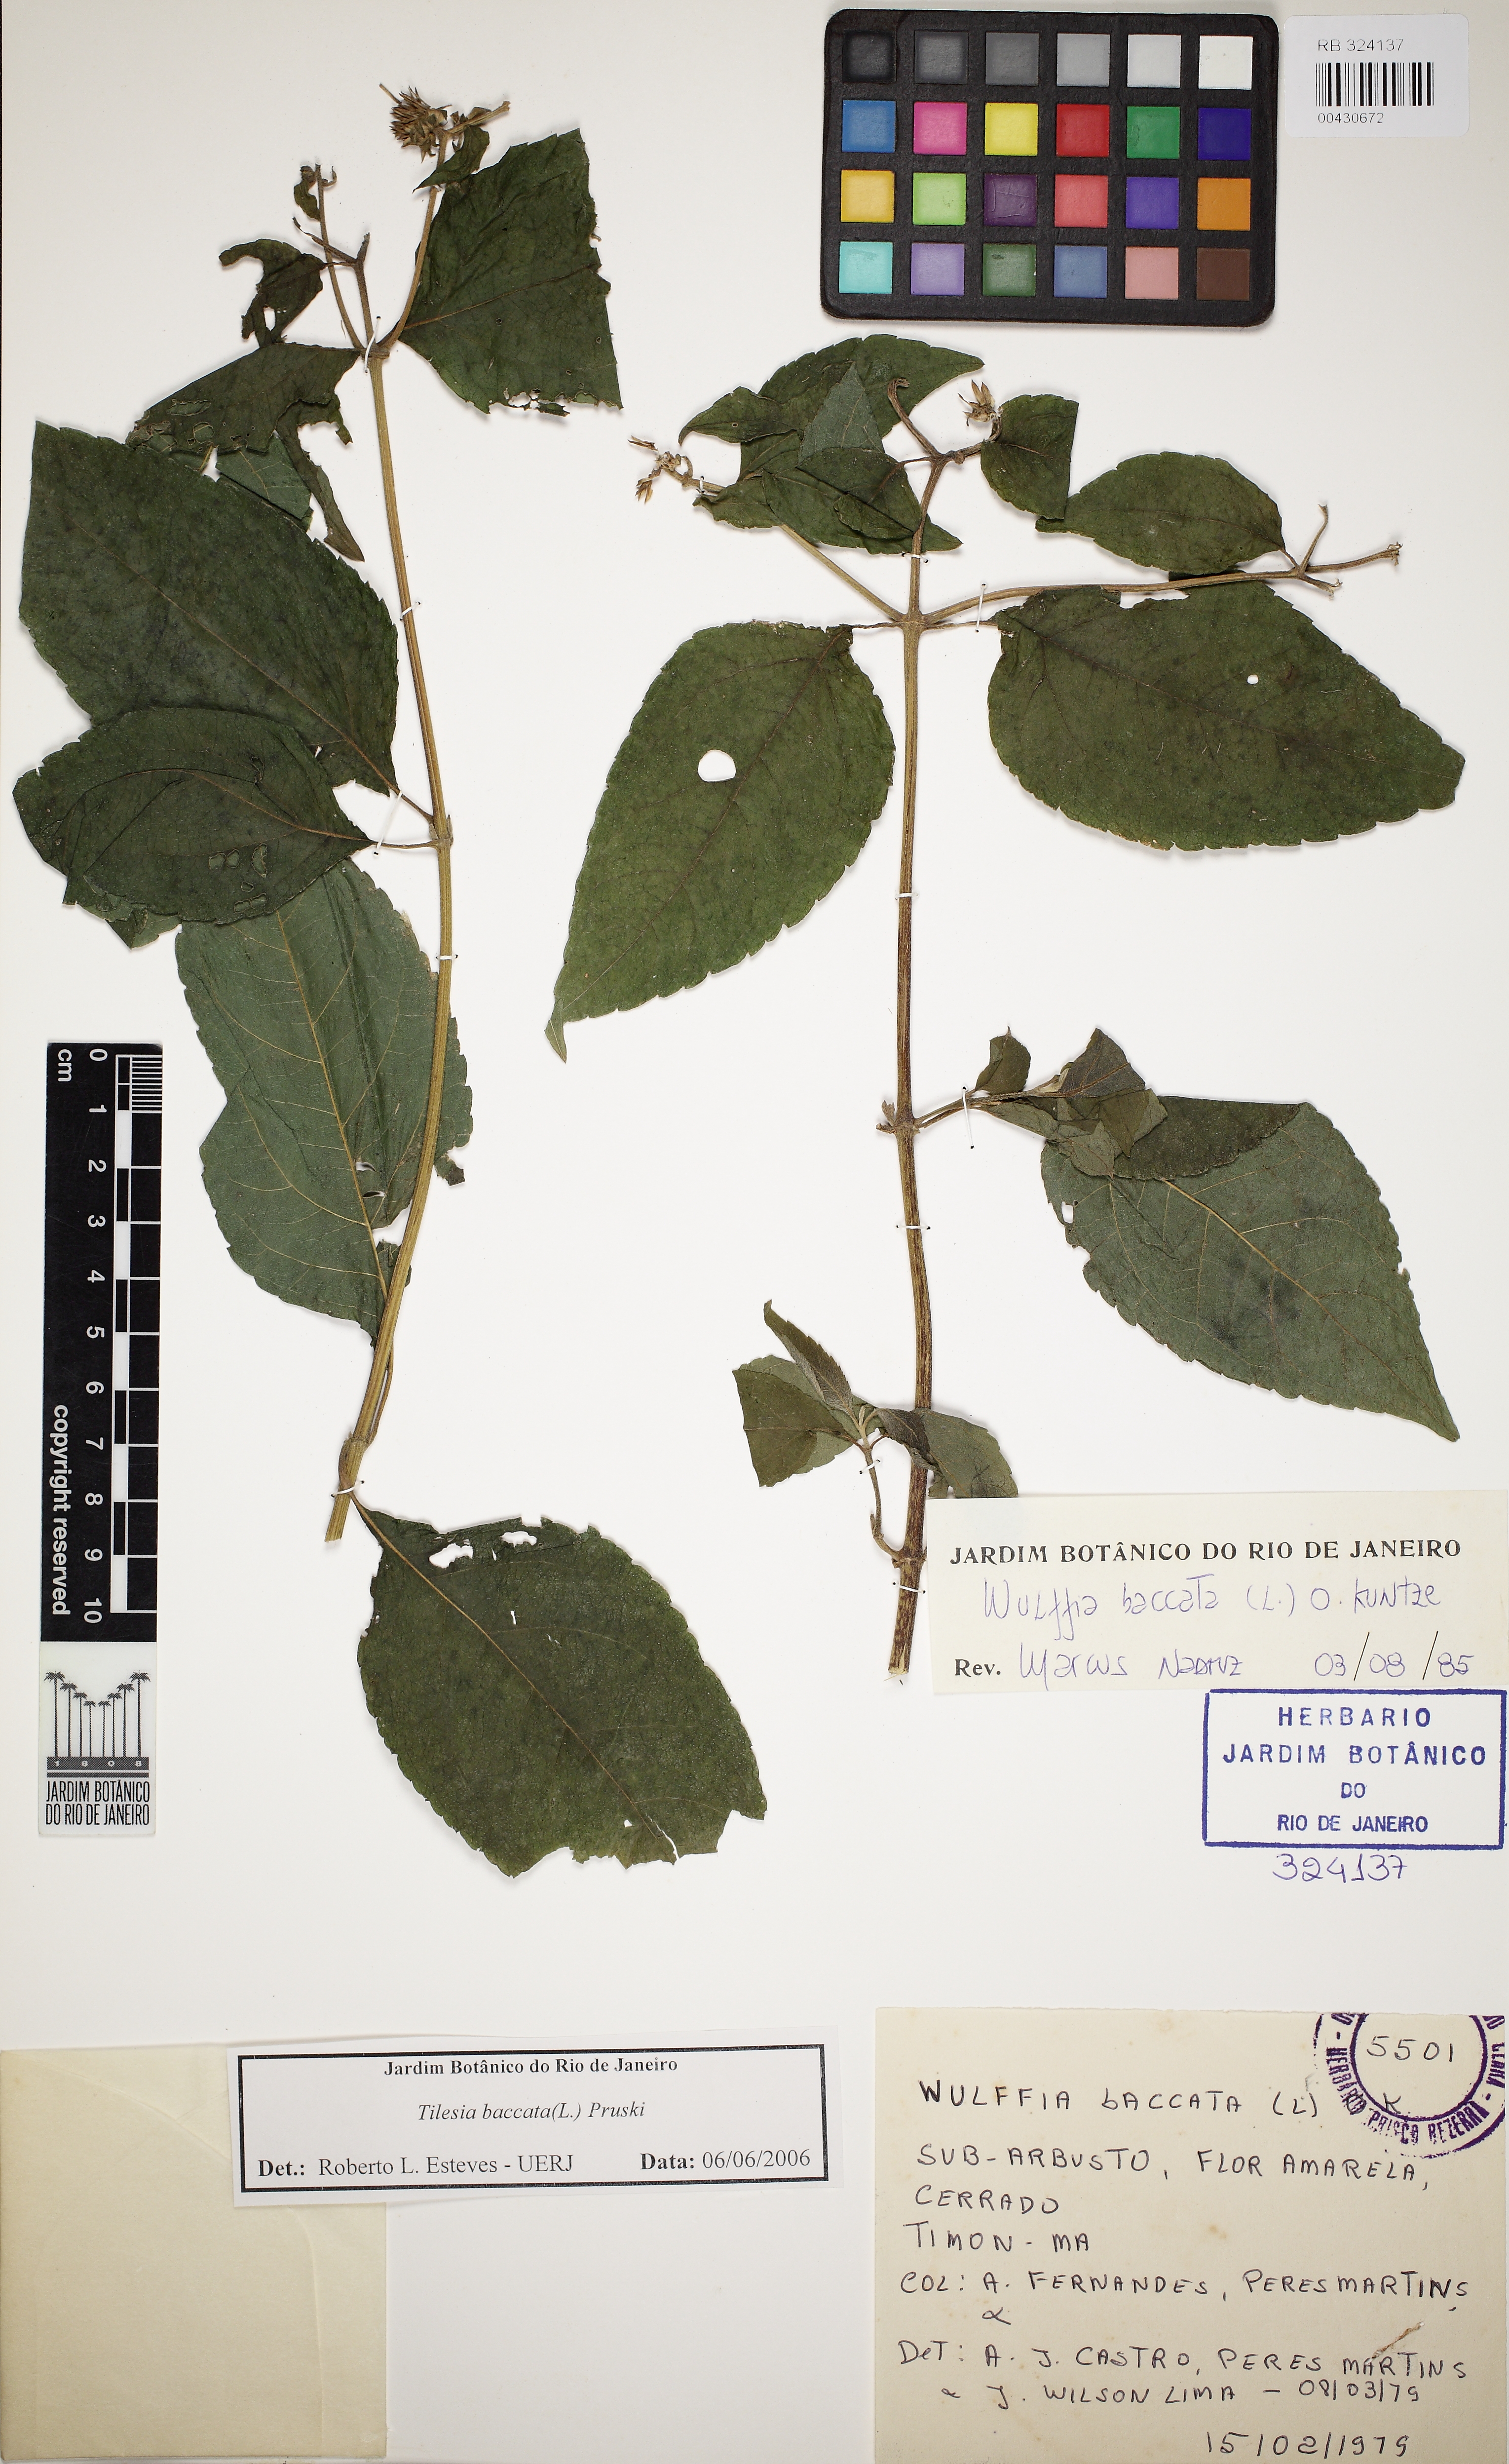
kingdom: Plantae
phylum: Tracheophyta
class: Magnoliopsida
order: Asterales
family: Asteraceae
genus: Tilesia
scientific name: Tilesia baccata
